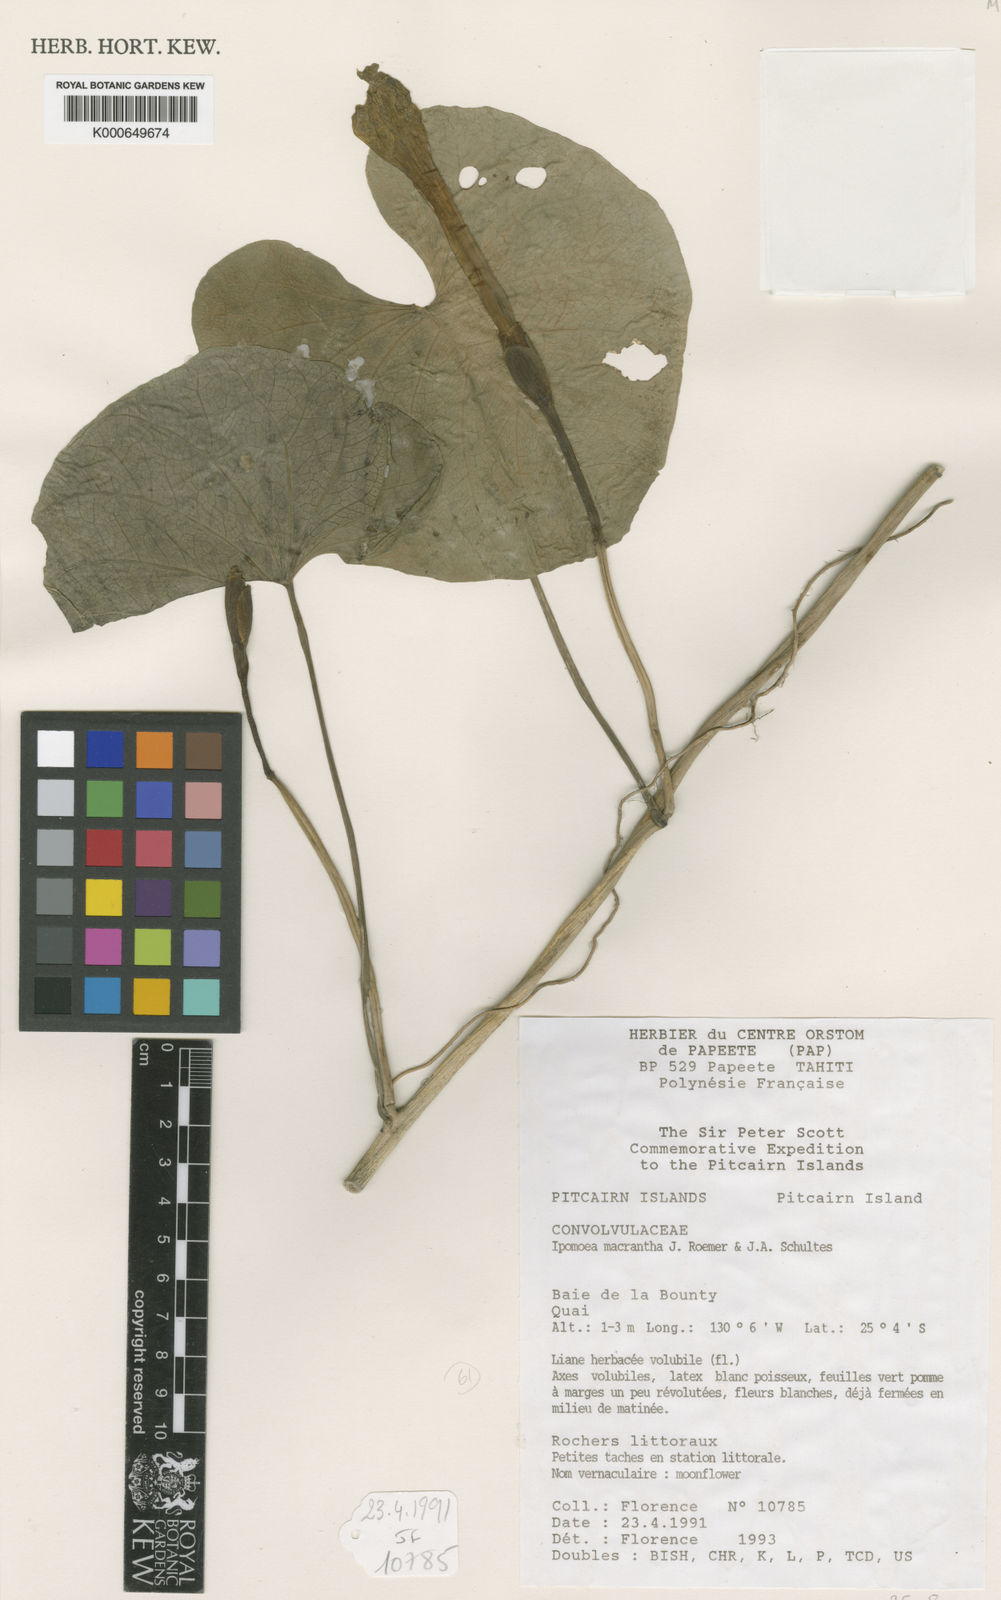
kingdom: Plantae
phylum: Tracheophyta
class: Magnoliopsida
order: Solanales
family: Convolvulaceae
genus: Ipomoea
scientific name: Ipomoea violacea
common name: Beach moonflower
